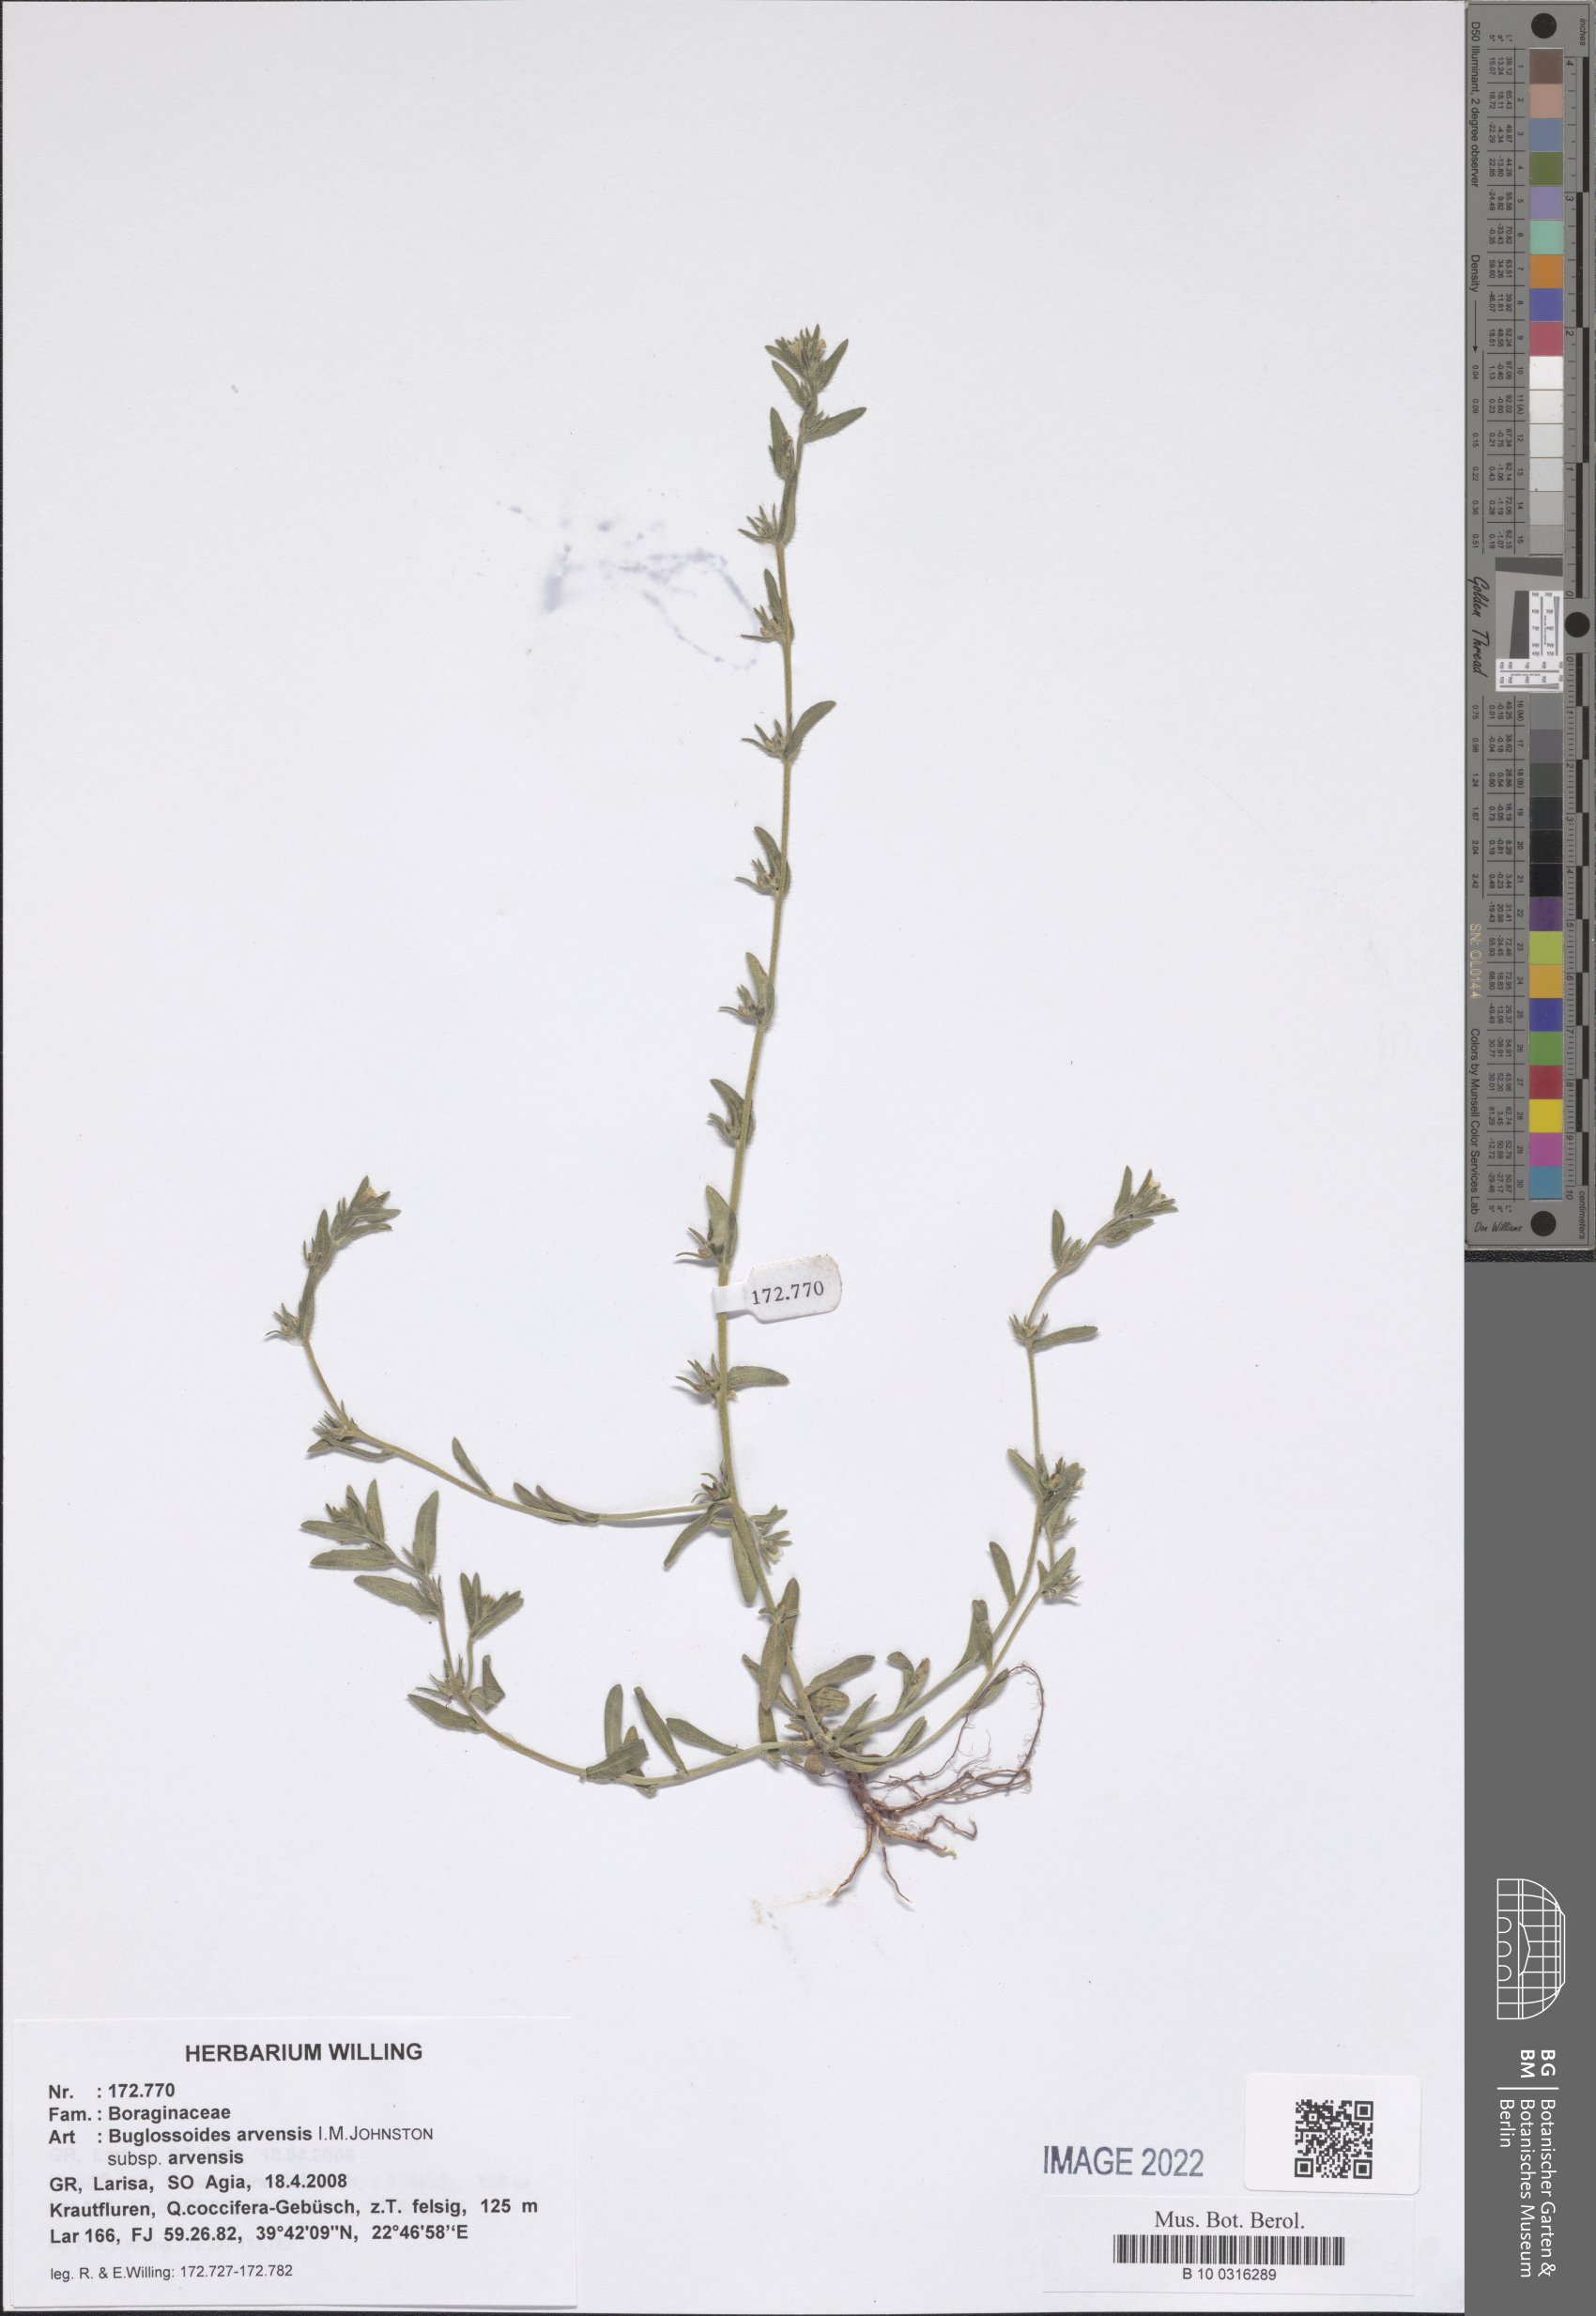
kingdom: Plantae
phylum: Tracheophyta
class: Magnoliopsida
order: Boraginales
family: Boraginaceae
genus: Buglossoides
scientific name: Buglossoides arvensis
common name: Corn gromwell
